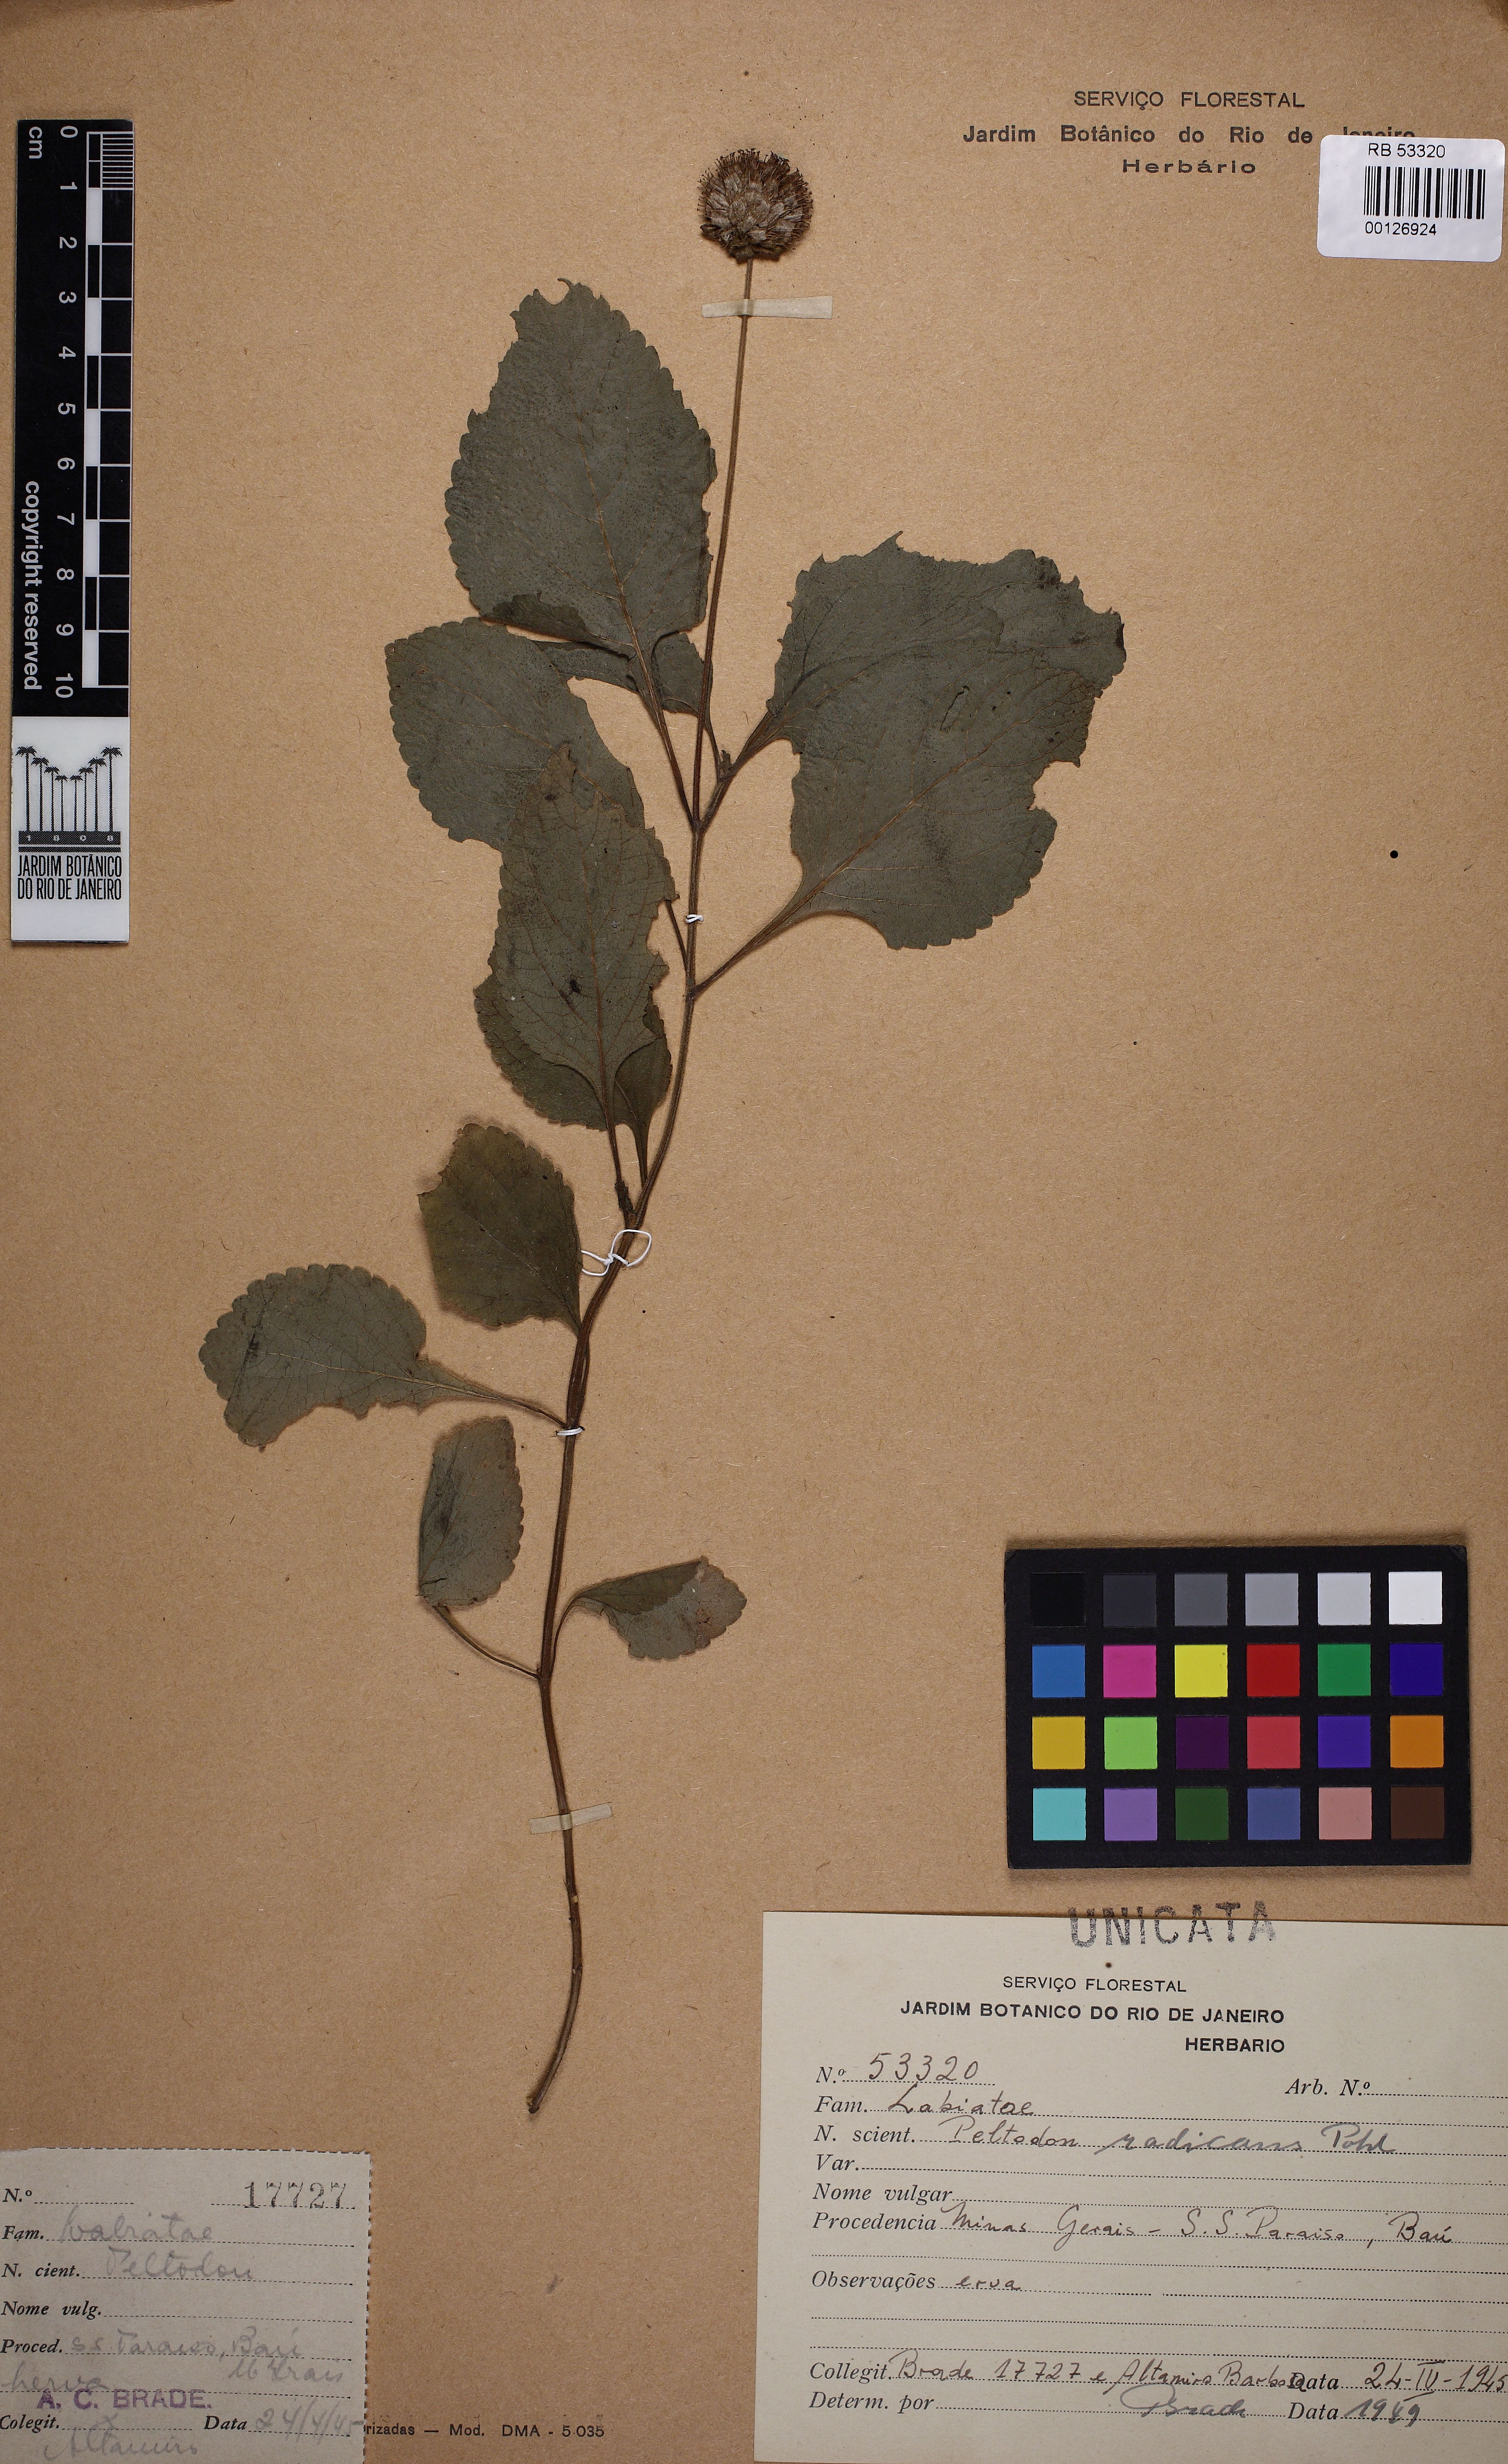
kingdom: Plantae
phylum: Tracheophyta
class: Magnoliopsida
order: Lamiales
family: Lamiaceae
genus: Hyptis
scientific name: Hyptis radicans
